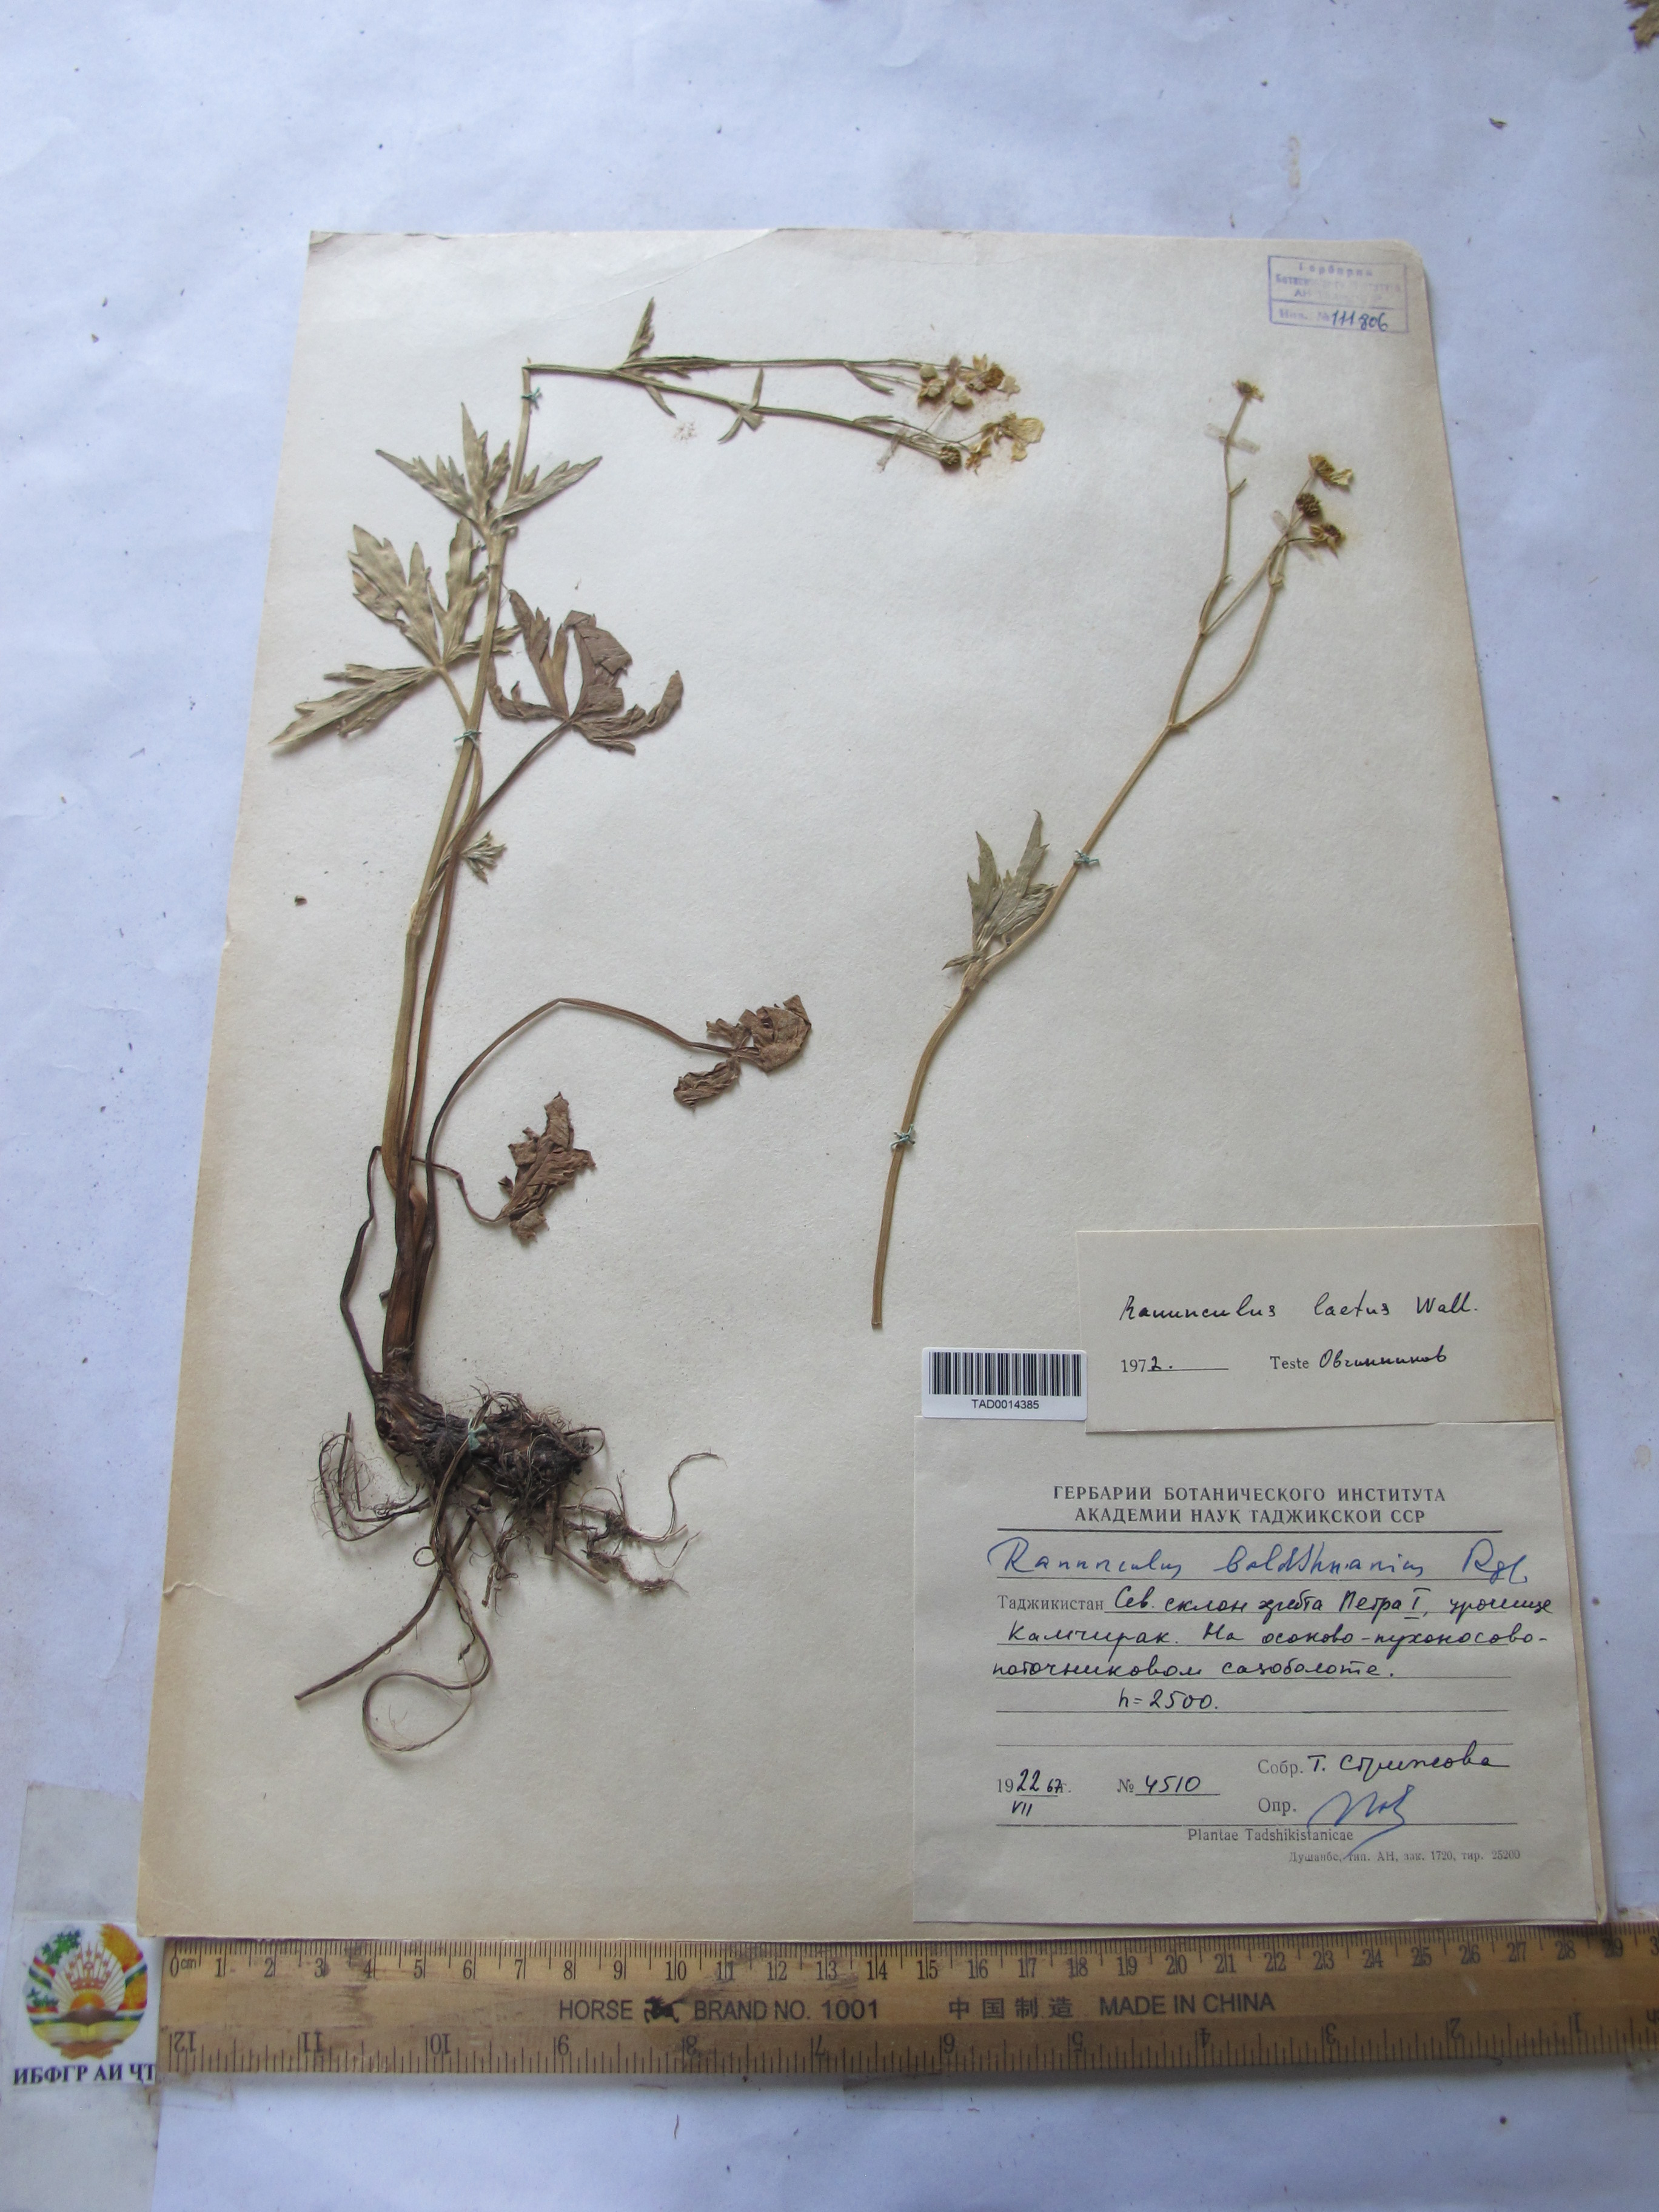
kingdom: Plantae
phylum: Tracheophyta
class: Magnoliopsida
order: Ranunculales
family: Ranunculaceae
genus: Ranunculus
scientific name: Ranunculus distans
